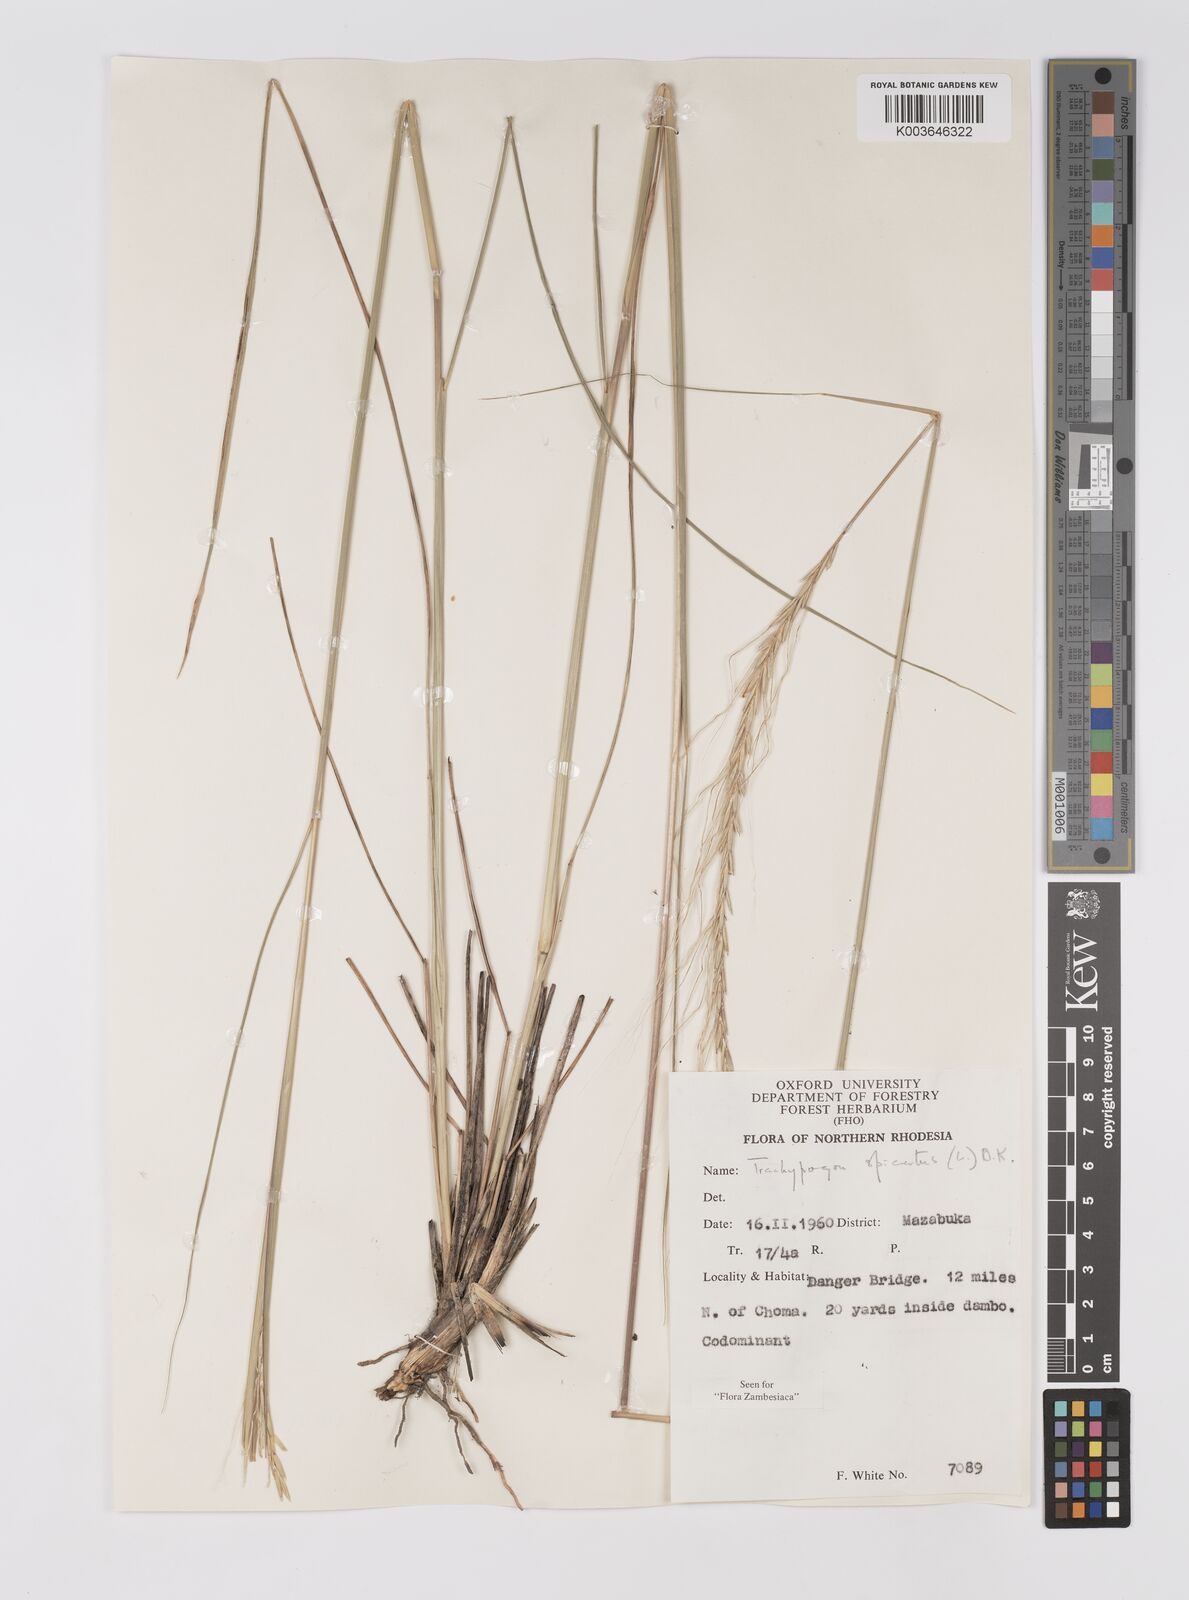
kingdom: Plantae
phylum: Tracheophyta
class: Liliopsida
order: Poales
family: Poaceae
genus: Trachypogon
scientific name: Trachypogon spicatus
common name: Crinkle-awn
